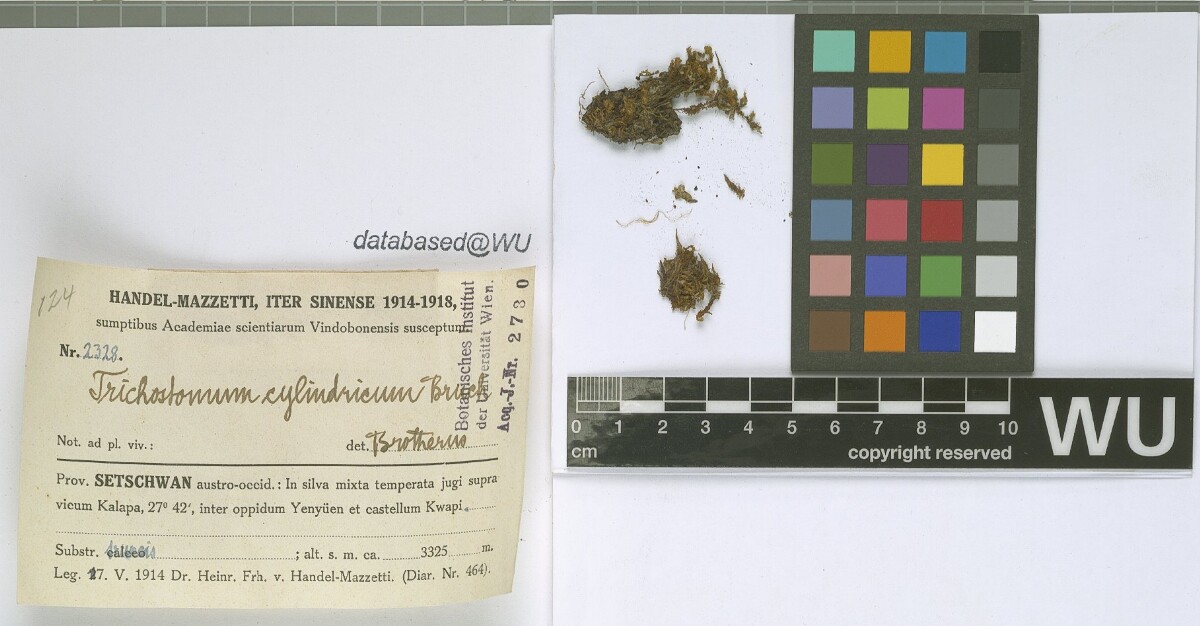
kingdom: Plantae
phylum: Bryophyta
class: Bryopsida
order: Pottiales
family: Pottiaceae
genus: Chionoloma
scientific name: Chionoloma tenuirostre
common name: Narrow-fruited crisp-moss
